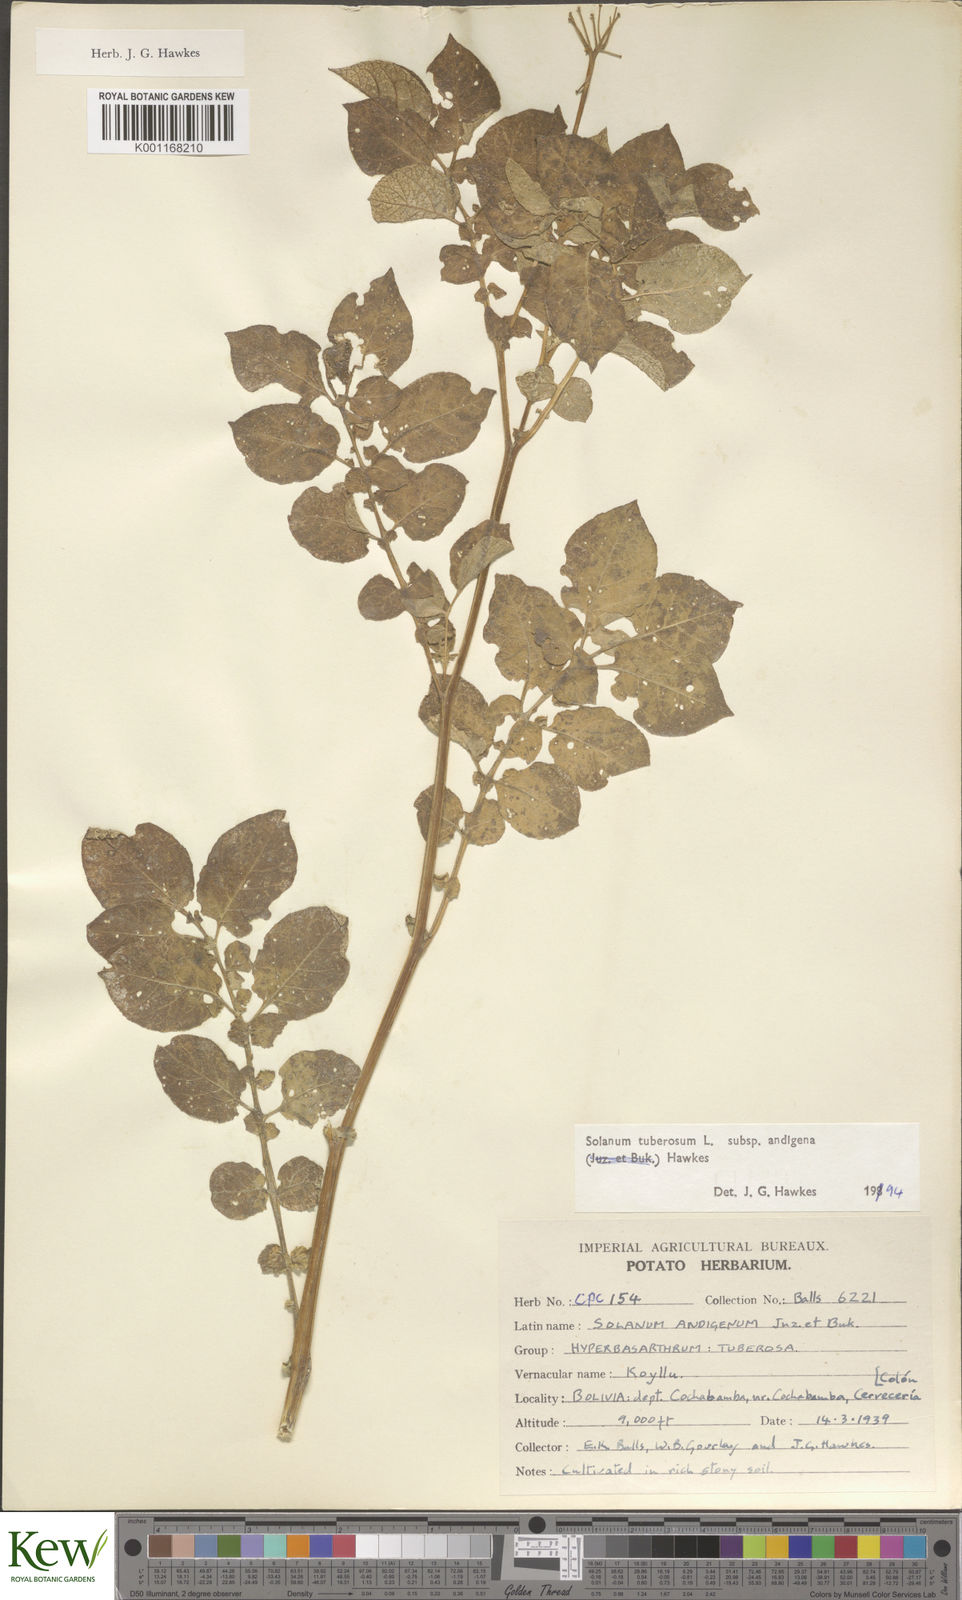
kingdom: Plantae
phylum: Tracheophyta
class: Magnoliopsida
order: Solanales
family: Solanaceae
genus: Solanum
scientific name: Solanum tuberosum
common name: Potato
